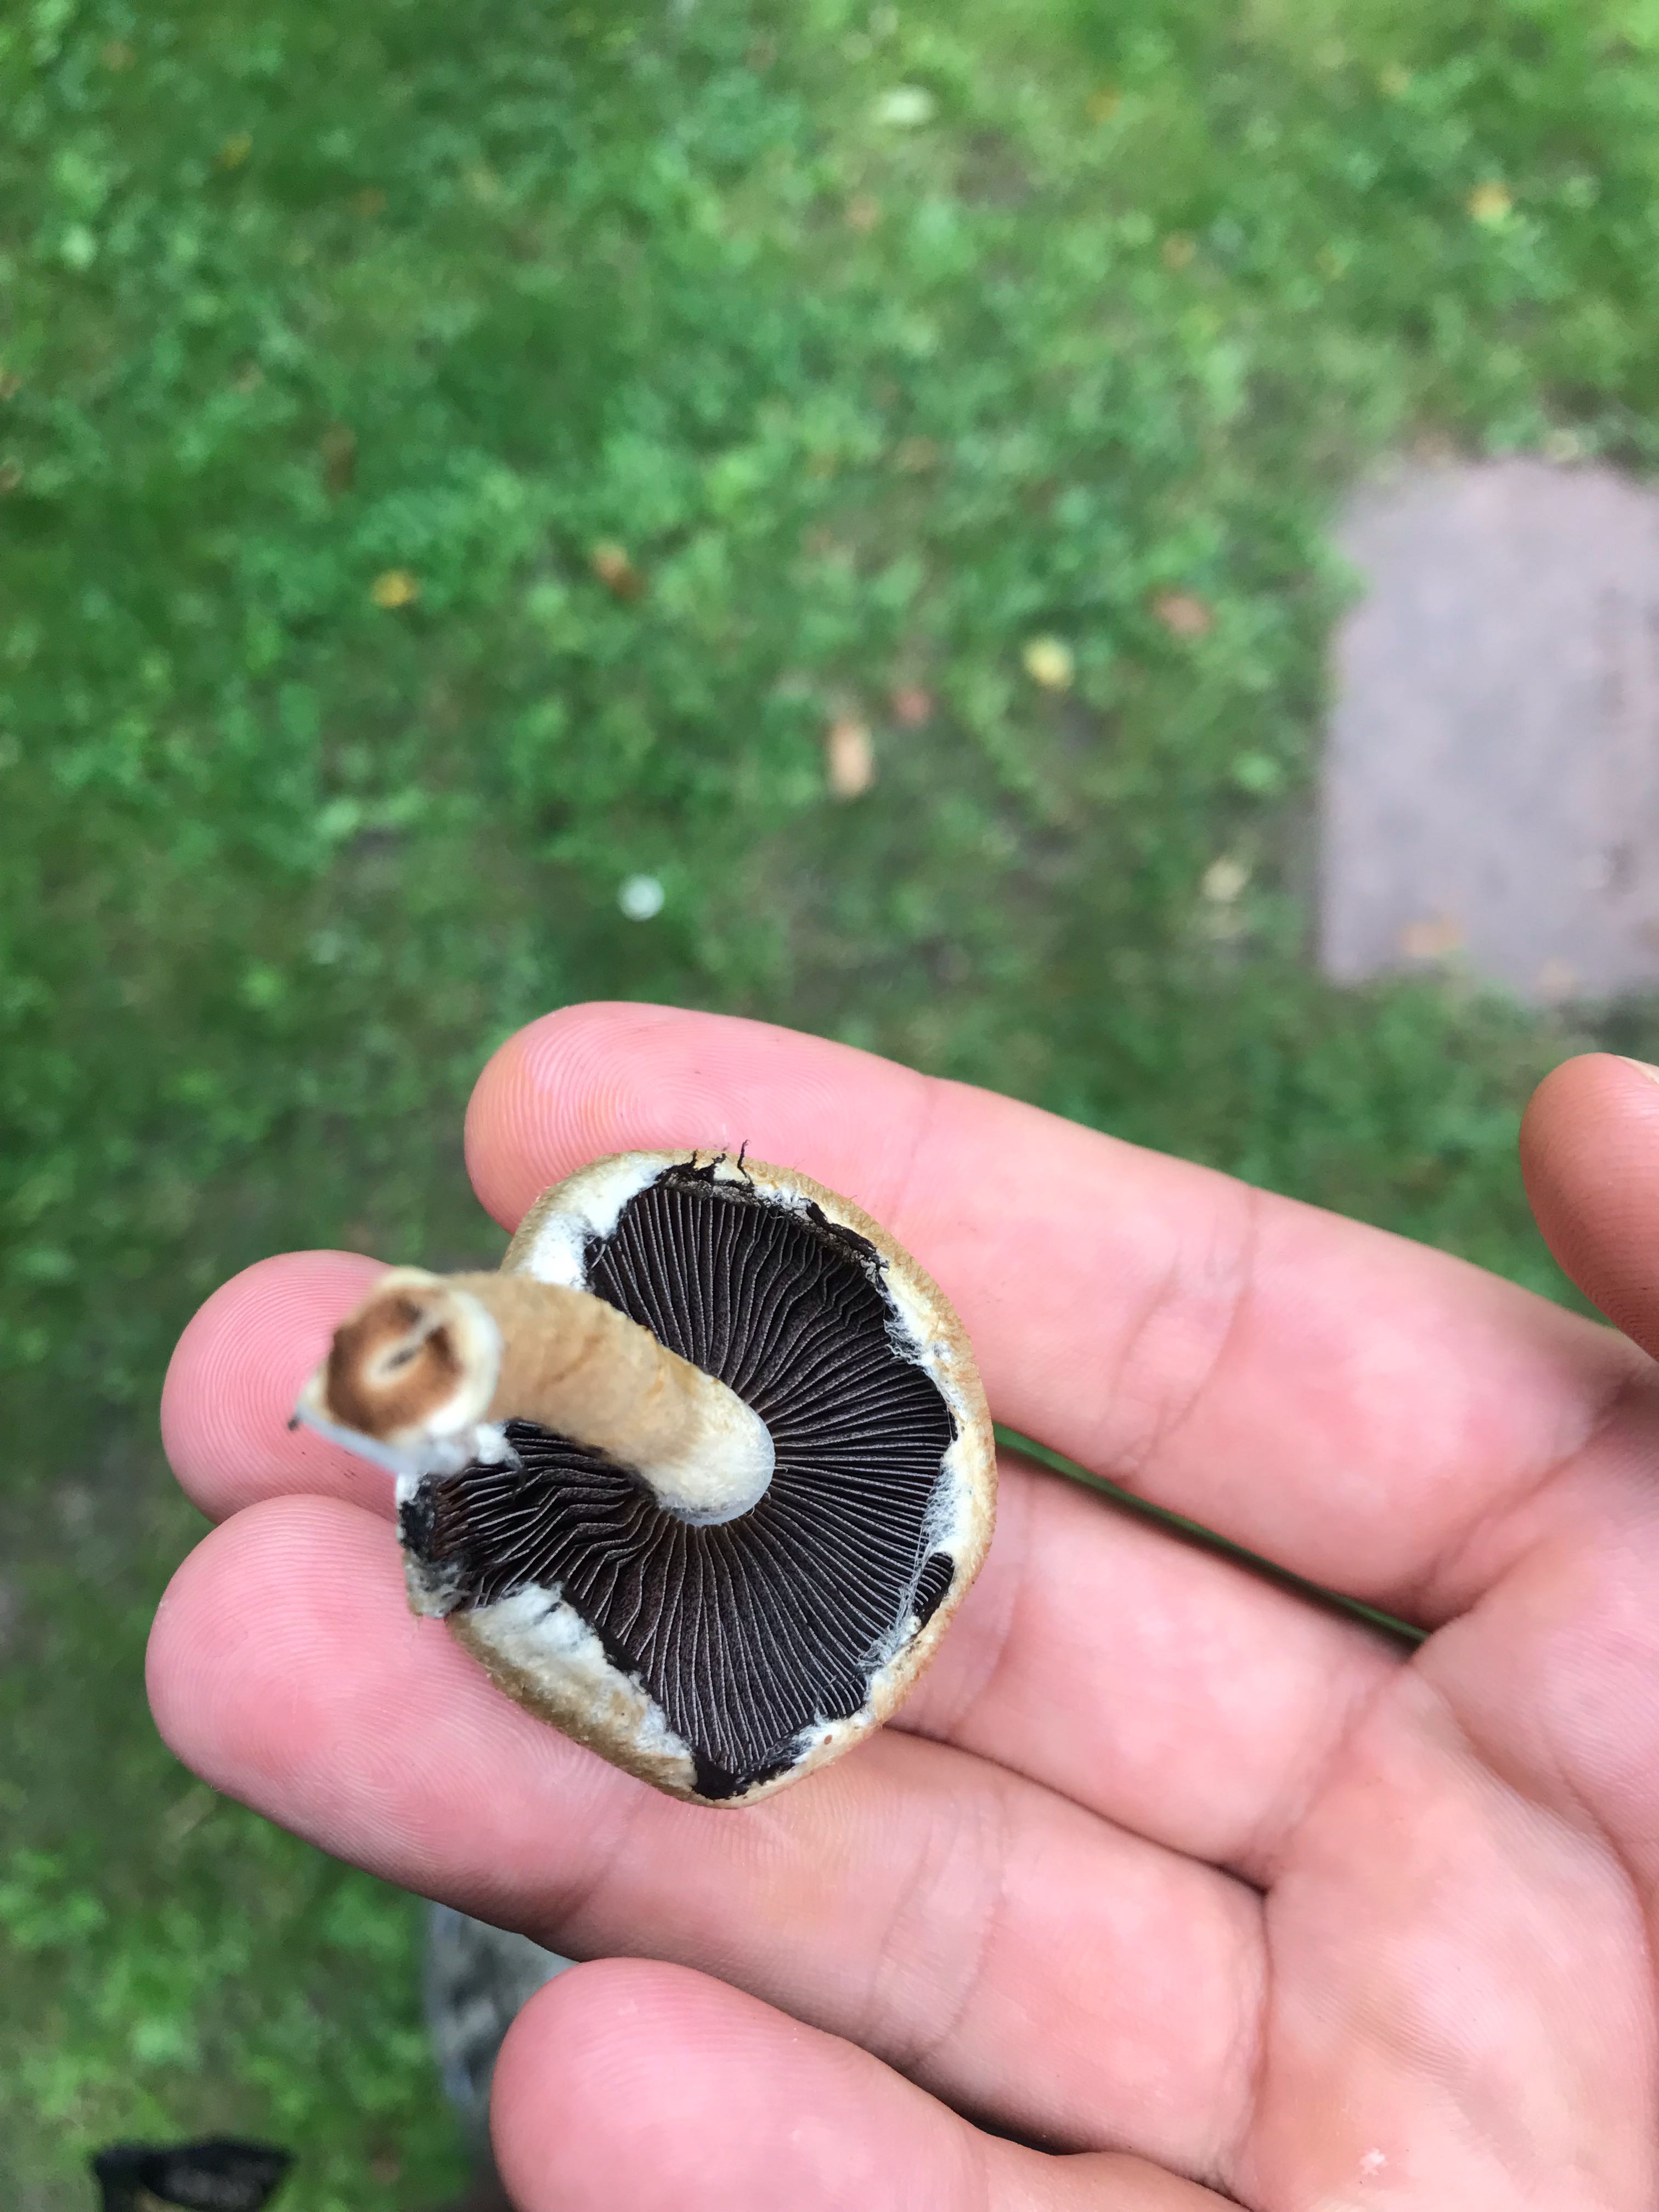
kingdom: Fungi
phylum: Basidiomycota
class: Agaricomycetes
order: Agaricales
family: Psathyrellaceae
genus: Lacrymaria
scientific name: Lacrymaria lacrymabunda
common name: grædende mørkhat
